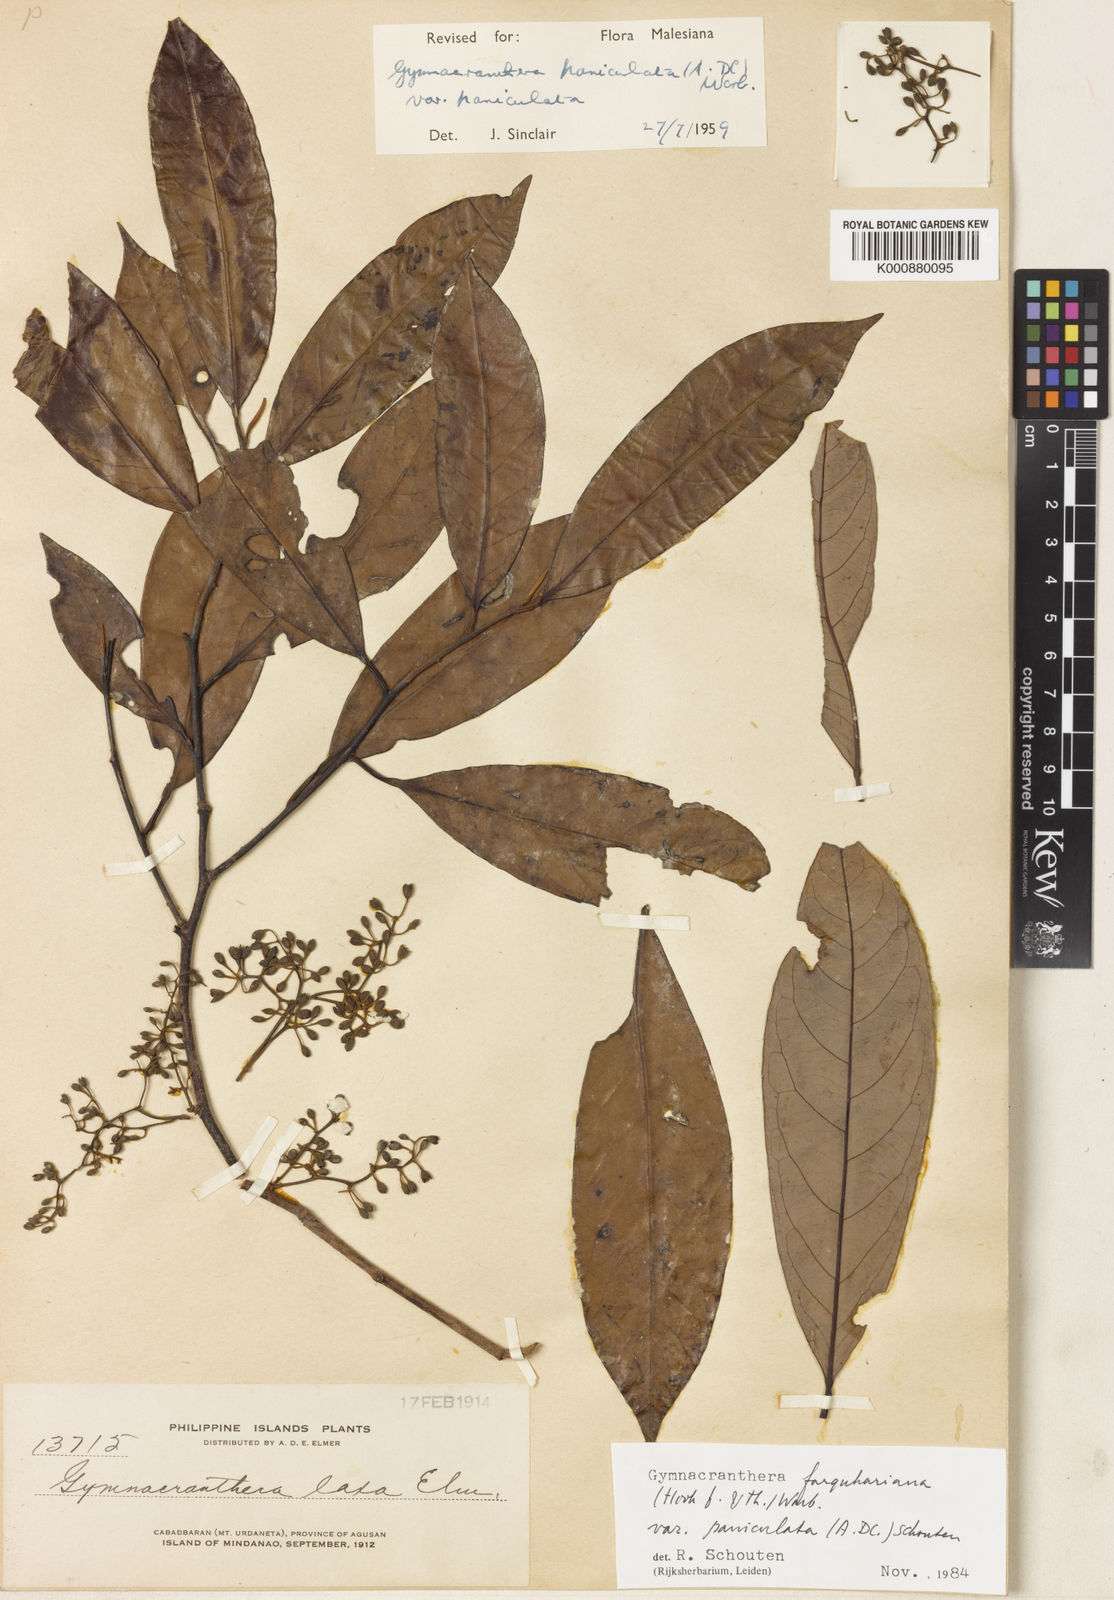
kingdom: Plantae
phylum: Tracheophyta
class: Magnoliopsida
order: Magnoliales
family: Myristicaceae
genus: Gymnacranthera
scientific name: Gymnacranthera farquhariana
